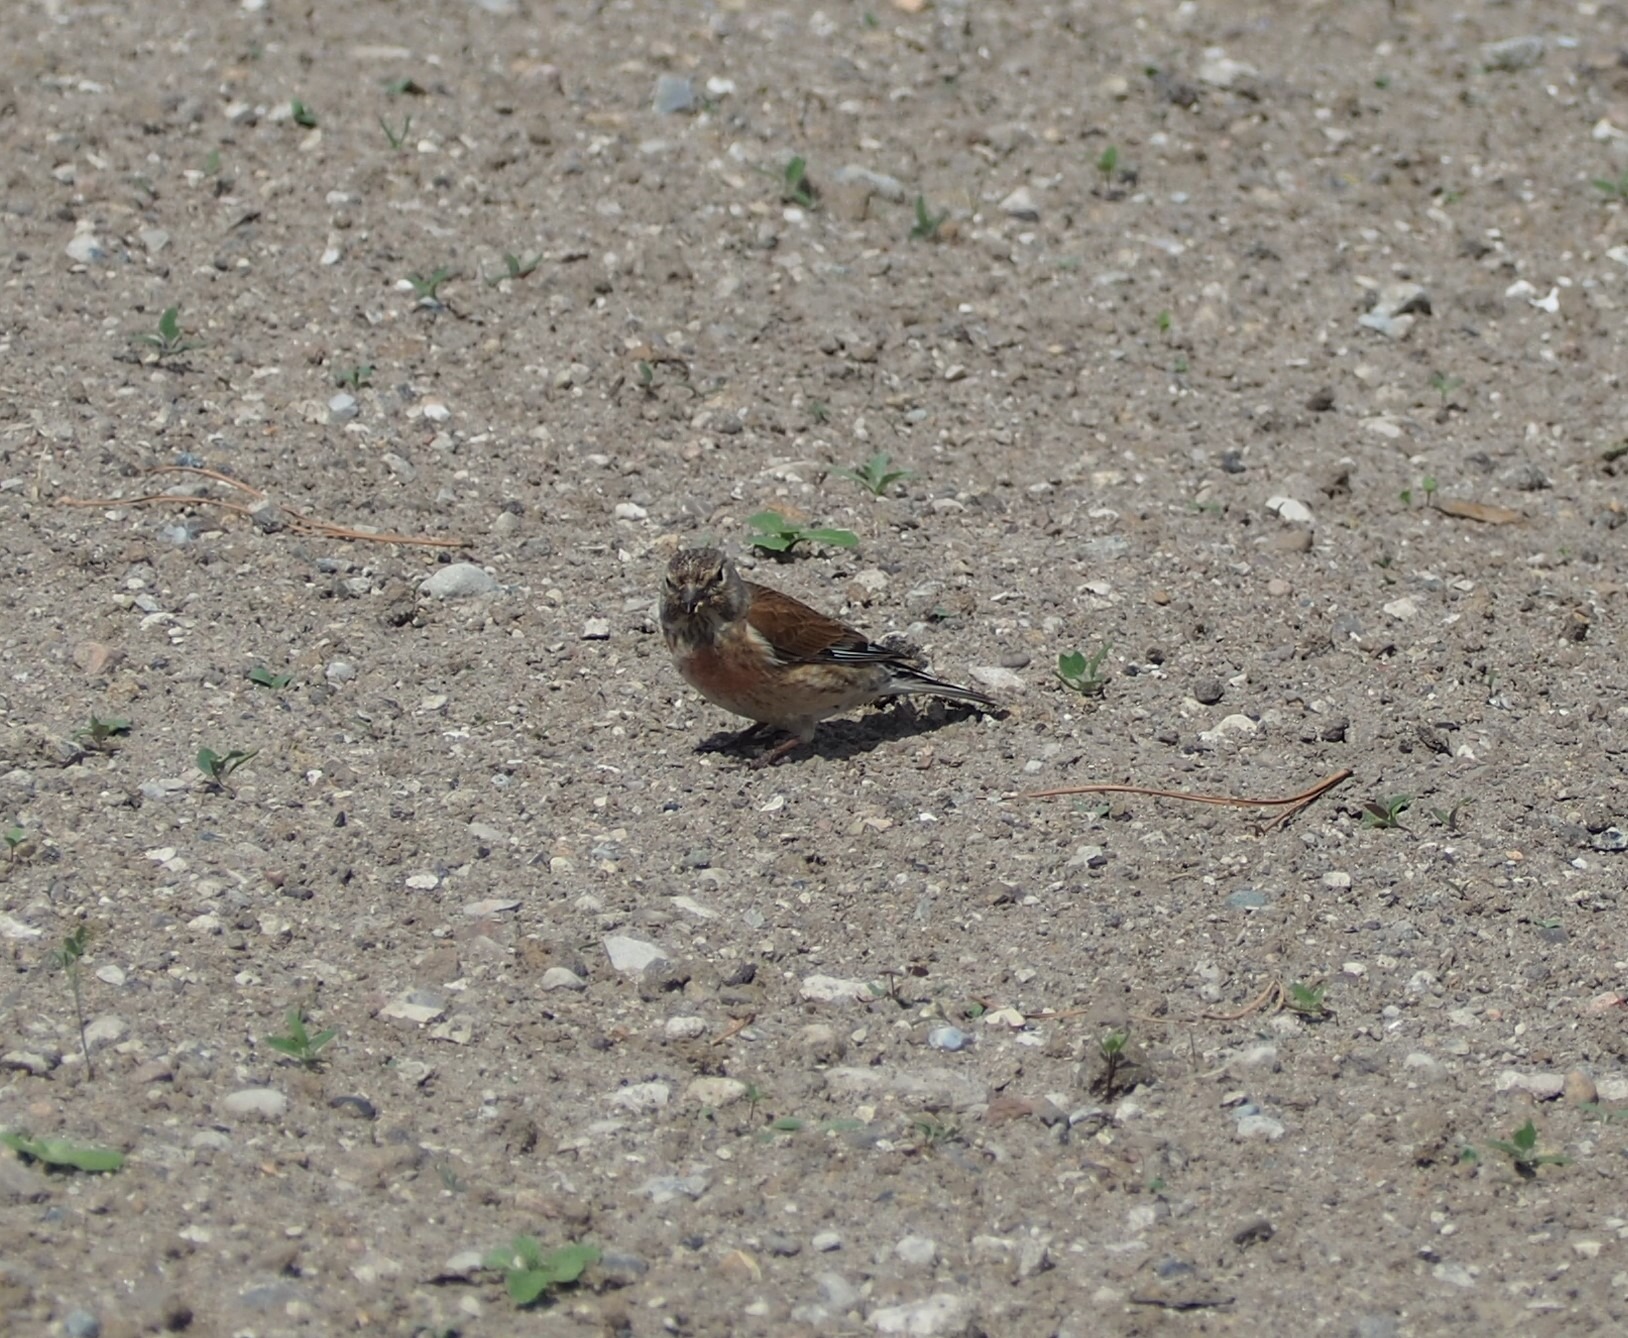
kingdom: Animalia
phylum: Chordata
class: Aves
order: Passeriformes
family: Fringillidae
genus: Linaria
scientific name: Linaria cannabina
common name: Tornirisk
